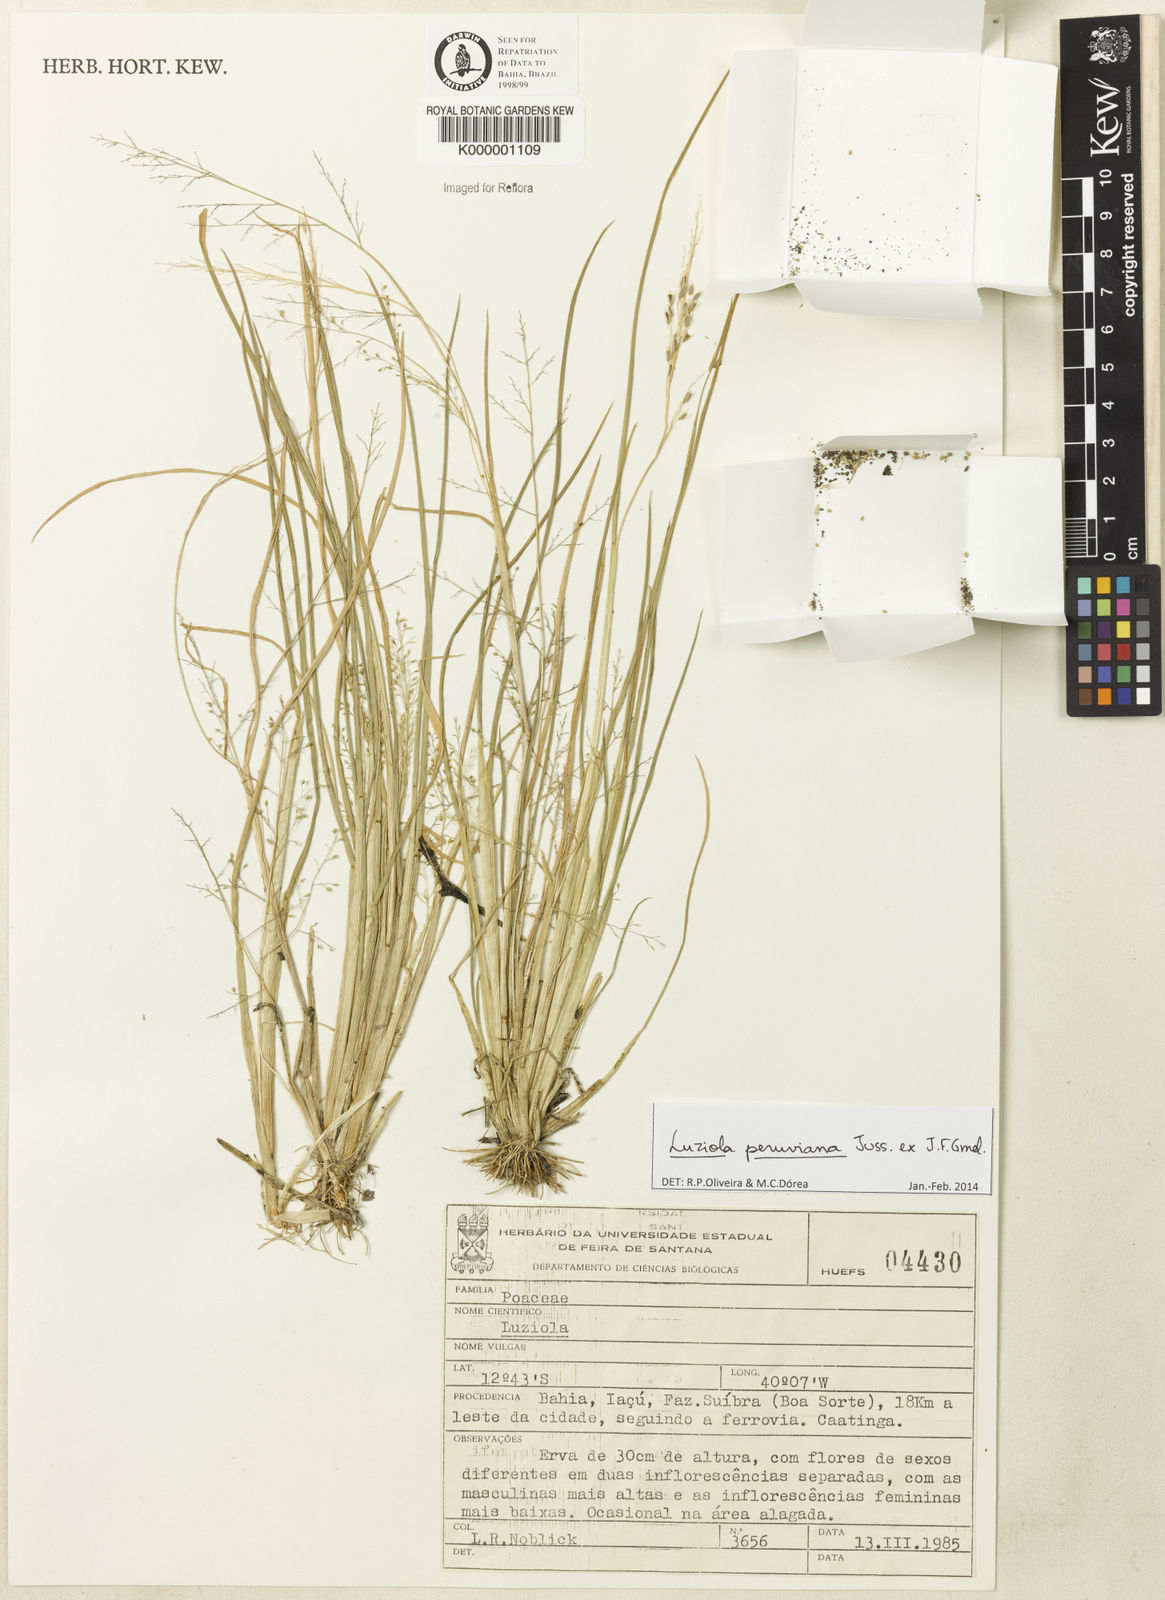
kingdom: Plantae
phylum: Tracheophyta
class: Liliopsida
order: Poales
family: Poaceae
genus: Luziola
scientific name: Luziola brasiliana
